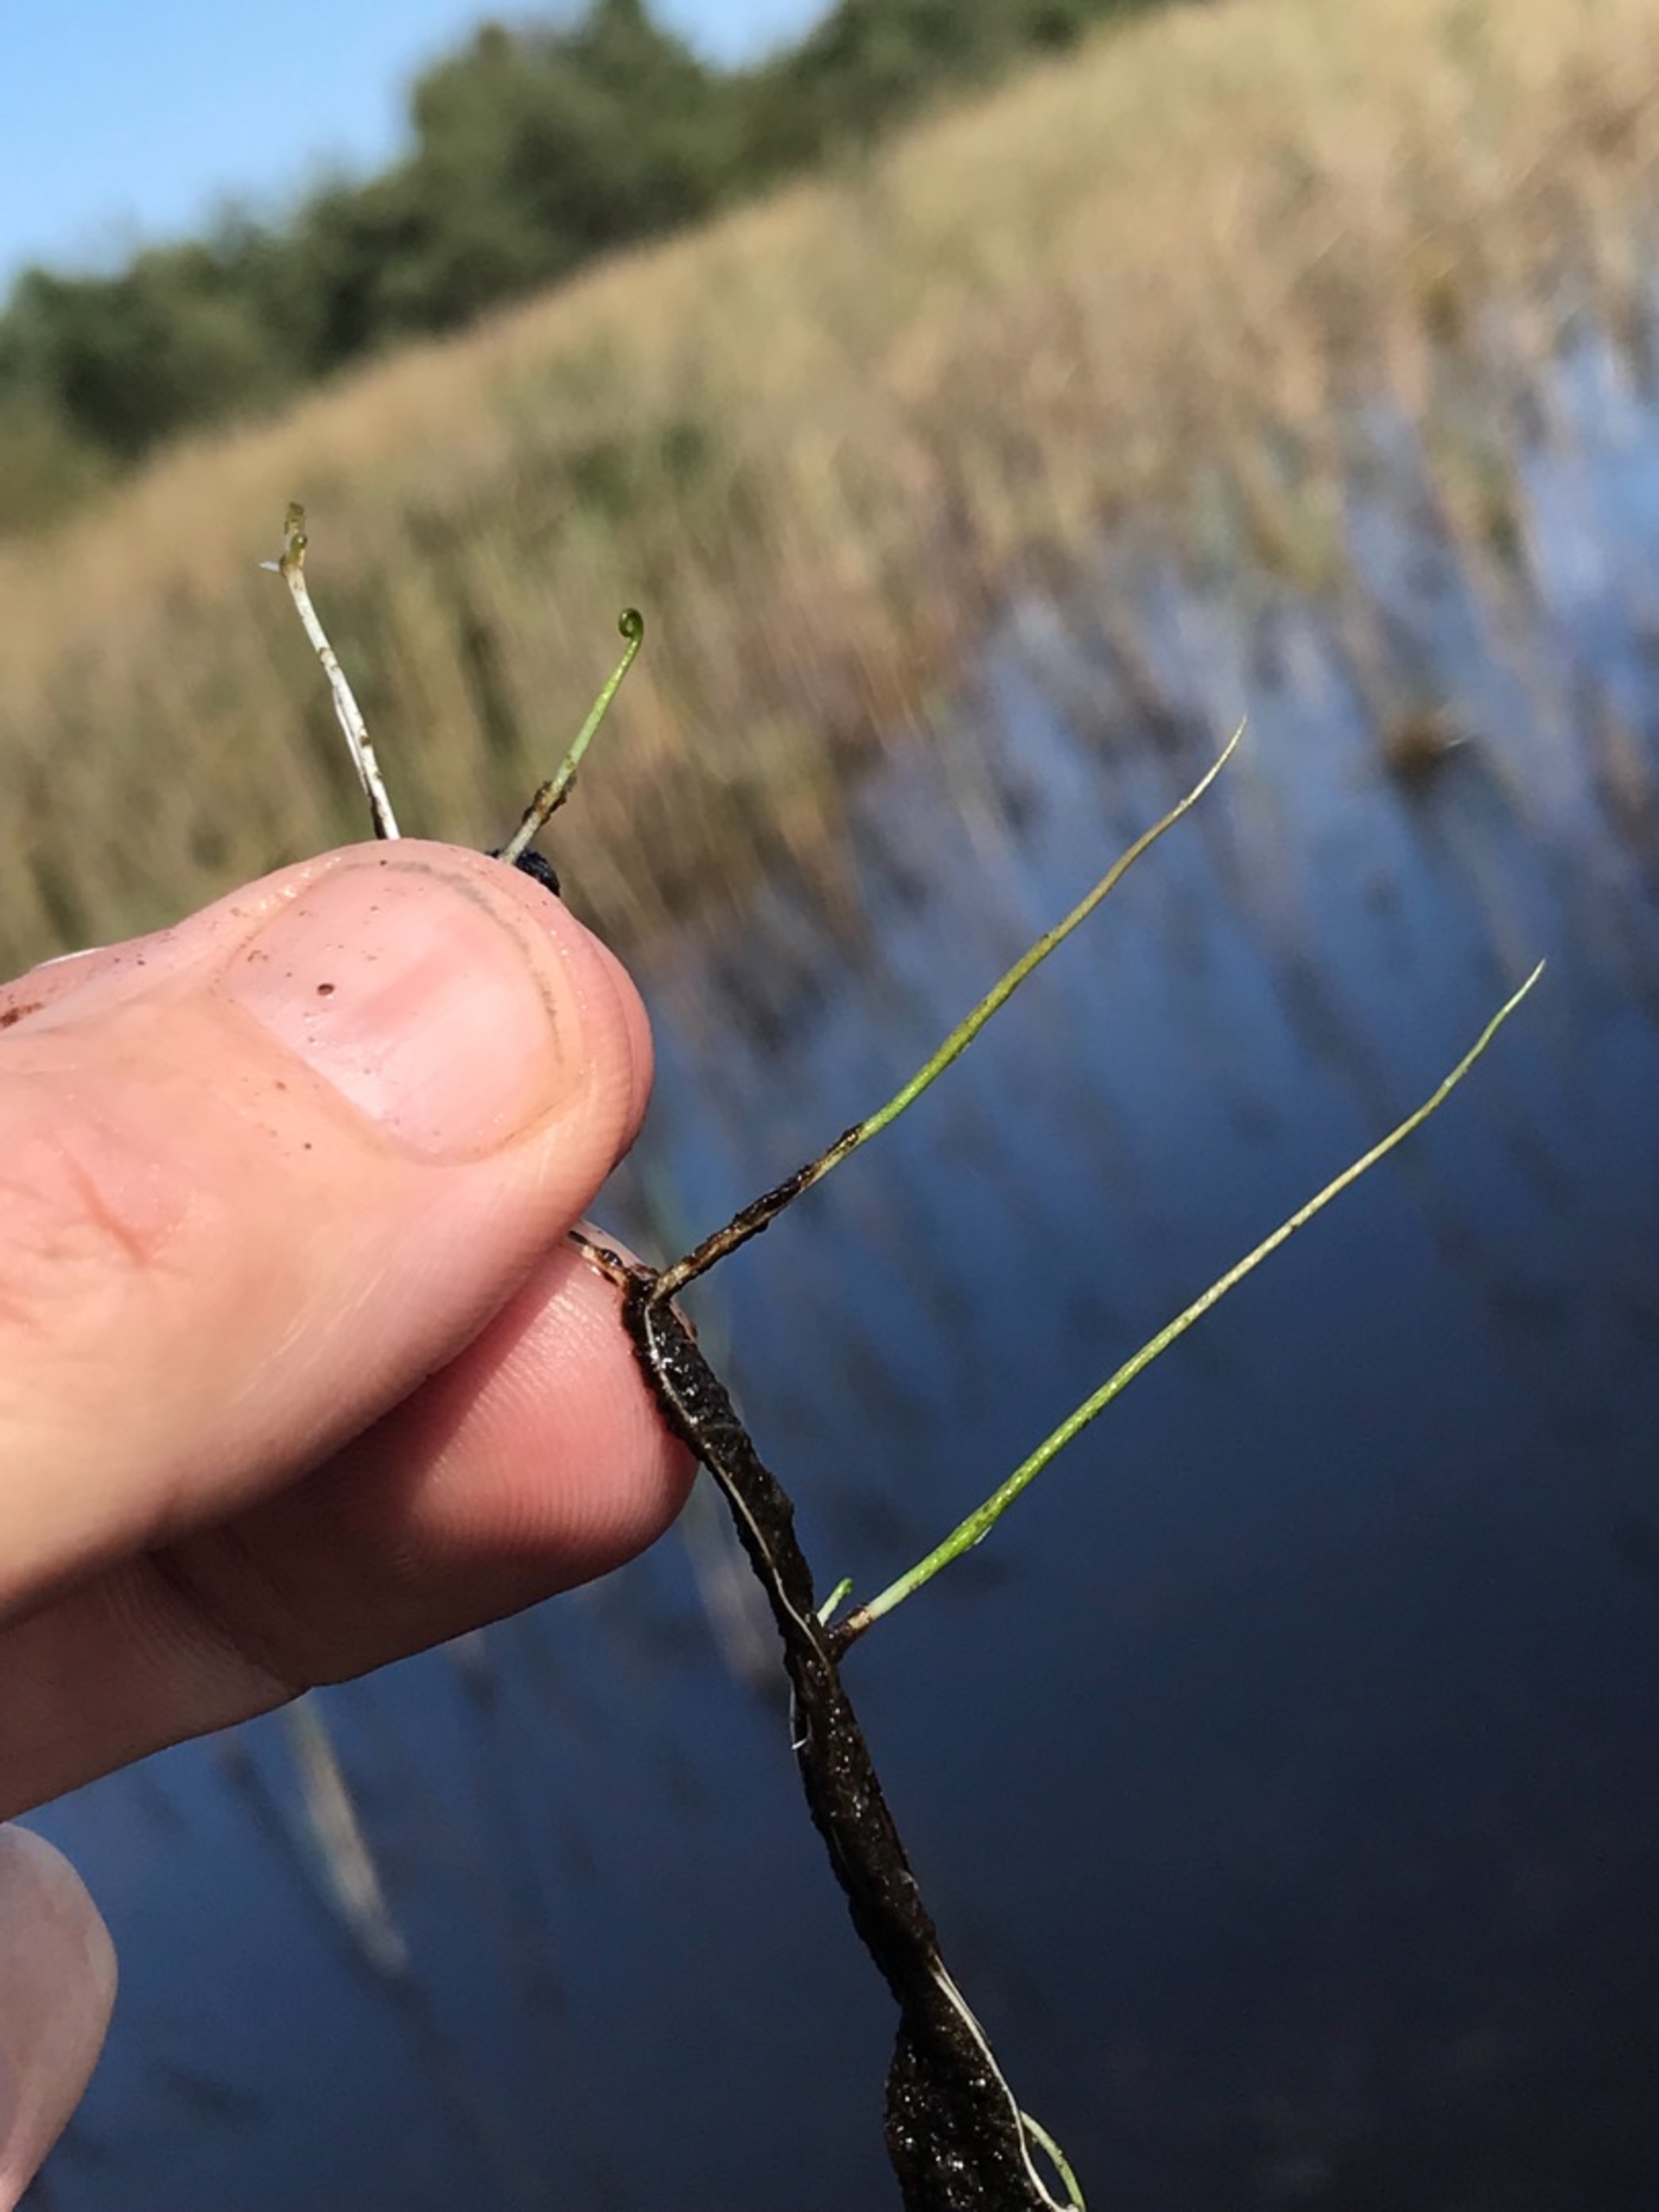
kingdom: Plantae
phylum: Tracheophyta
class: Polypodiopsida
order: Salviniales
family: Marsileaceae
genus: Pilularia
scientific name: Pilularia globulifera
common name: Pilledrager
